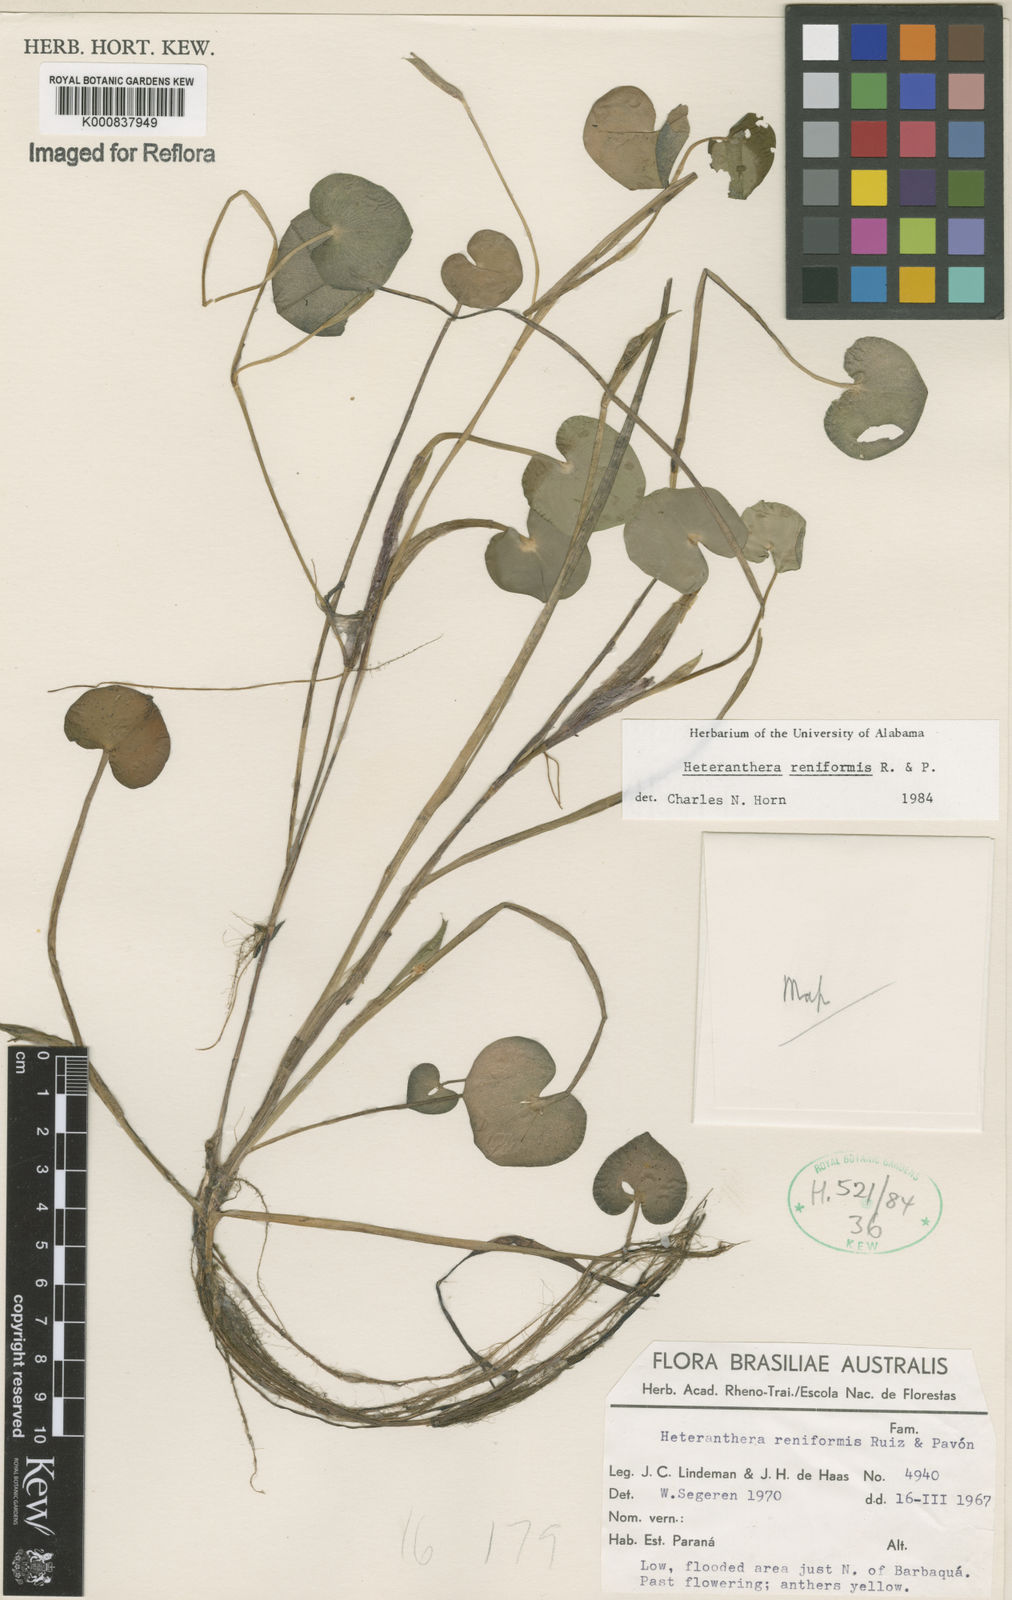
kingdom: Plantae
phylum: Tracheophyta
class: Liliopsida
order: Commelinales
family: Pontederiaceae
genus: Heteranthera
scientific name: Heteranthera reniformis
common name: Kidneyleaf mudplantain
